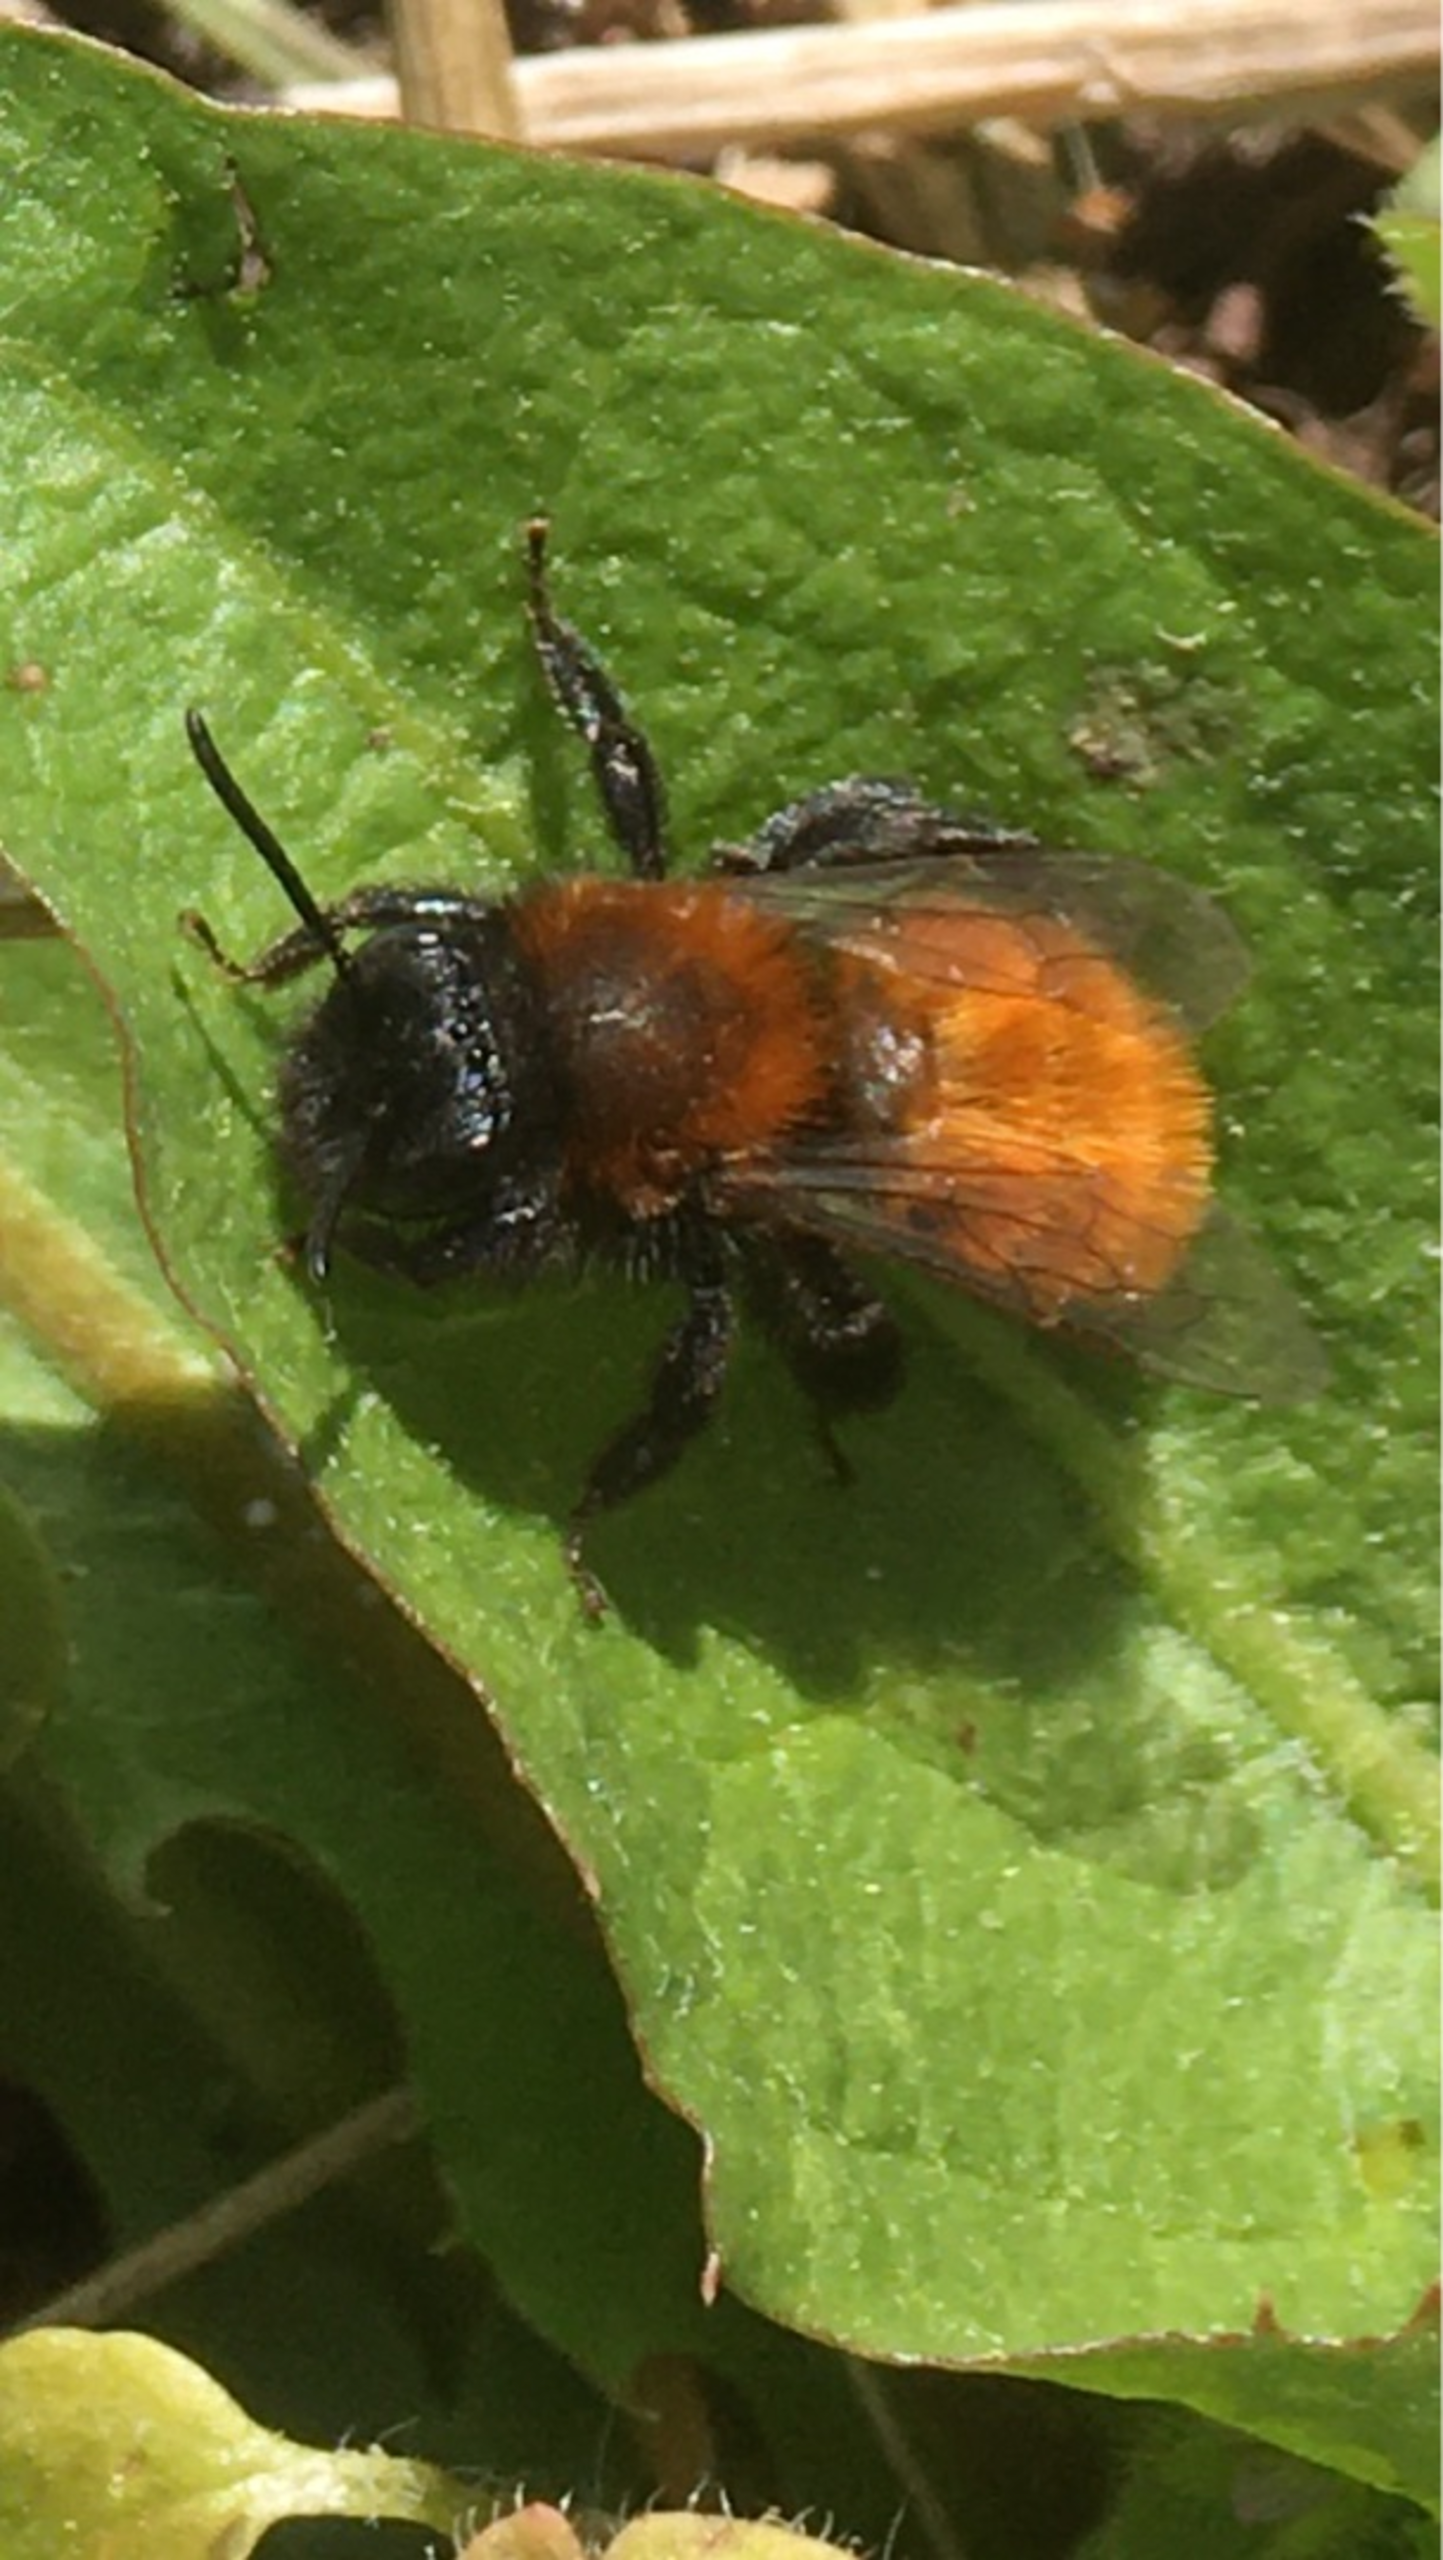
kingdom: Animalia
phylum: Arthropoda
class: Insecta
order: Hymenoptera
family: Andrenidae
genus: Andrena
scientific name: Andrena fulva
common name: Rødpelset jordbi
